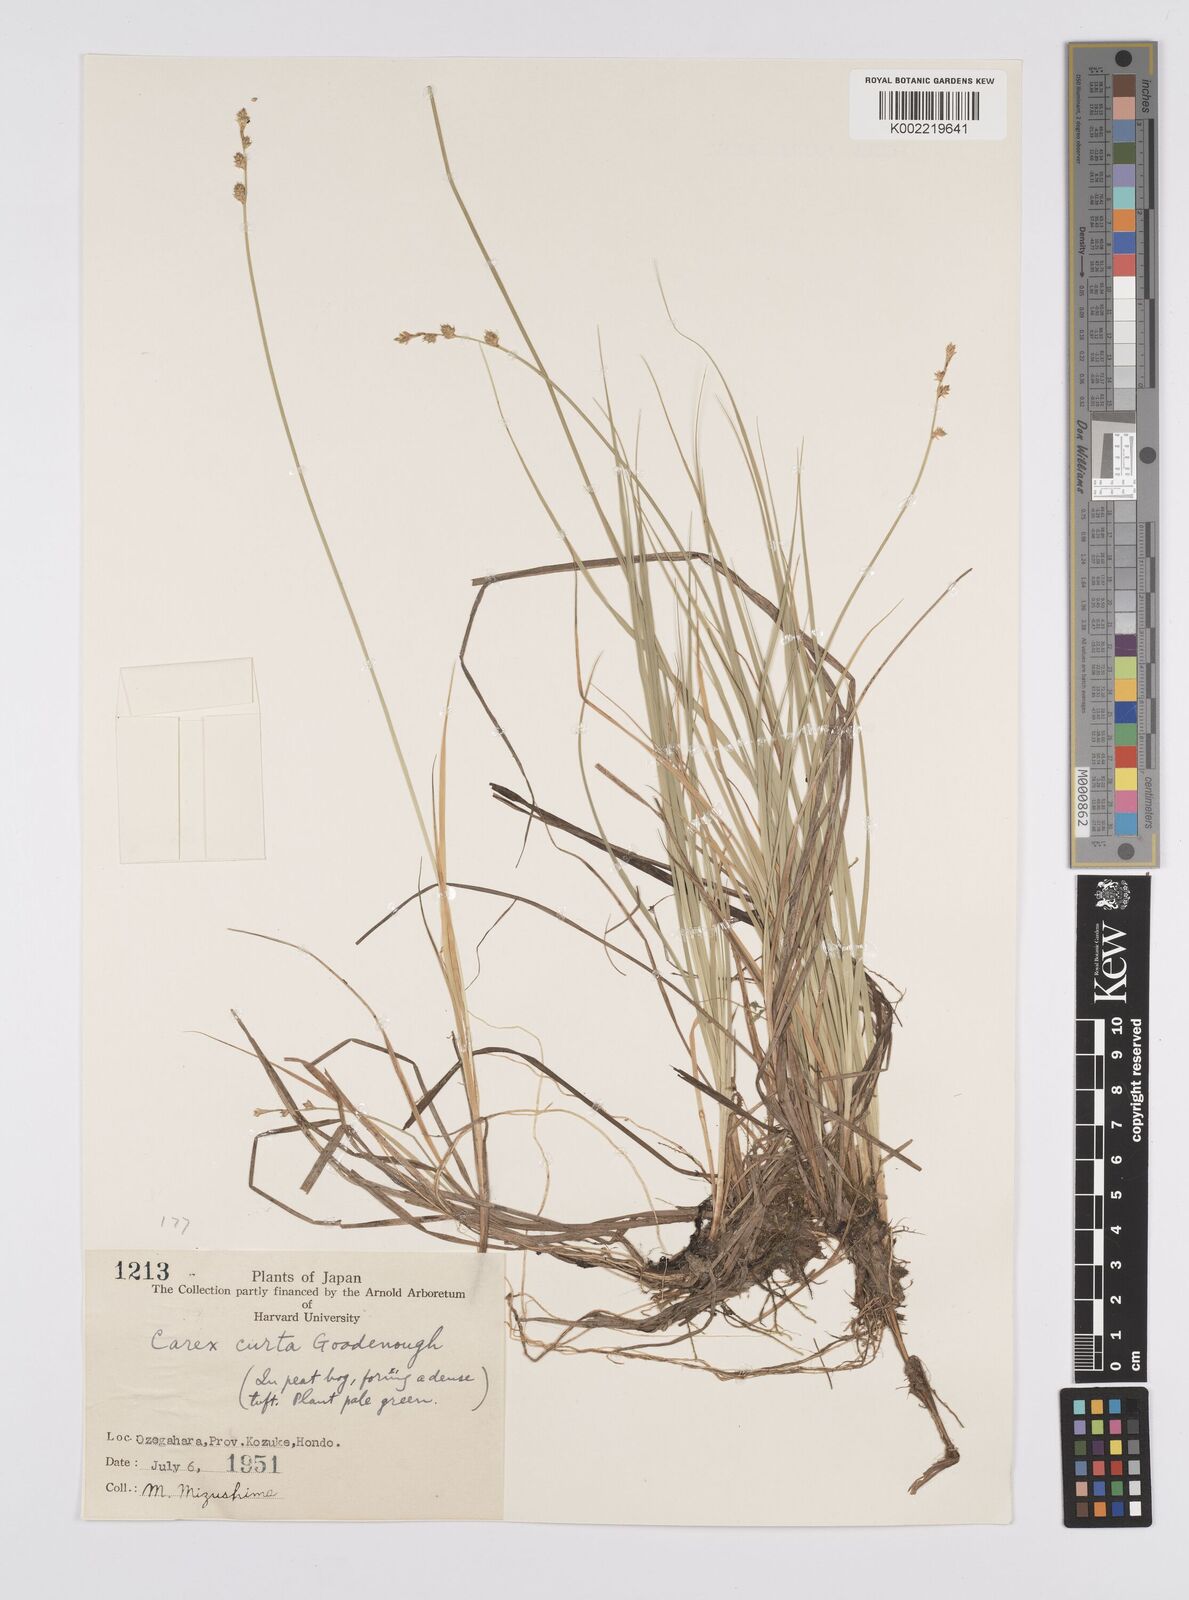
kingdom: Plantae
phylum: Tracheophyta
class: Liliopsida
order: Poales
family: Cyperaceae
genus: Carex
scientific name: Carex canescens
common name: White sedge
